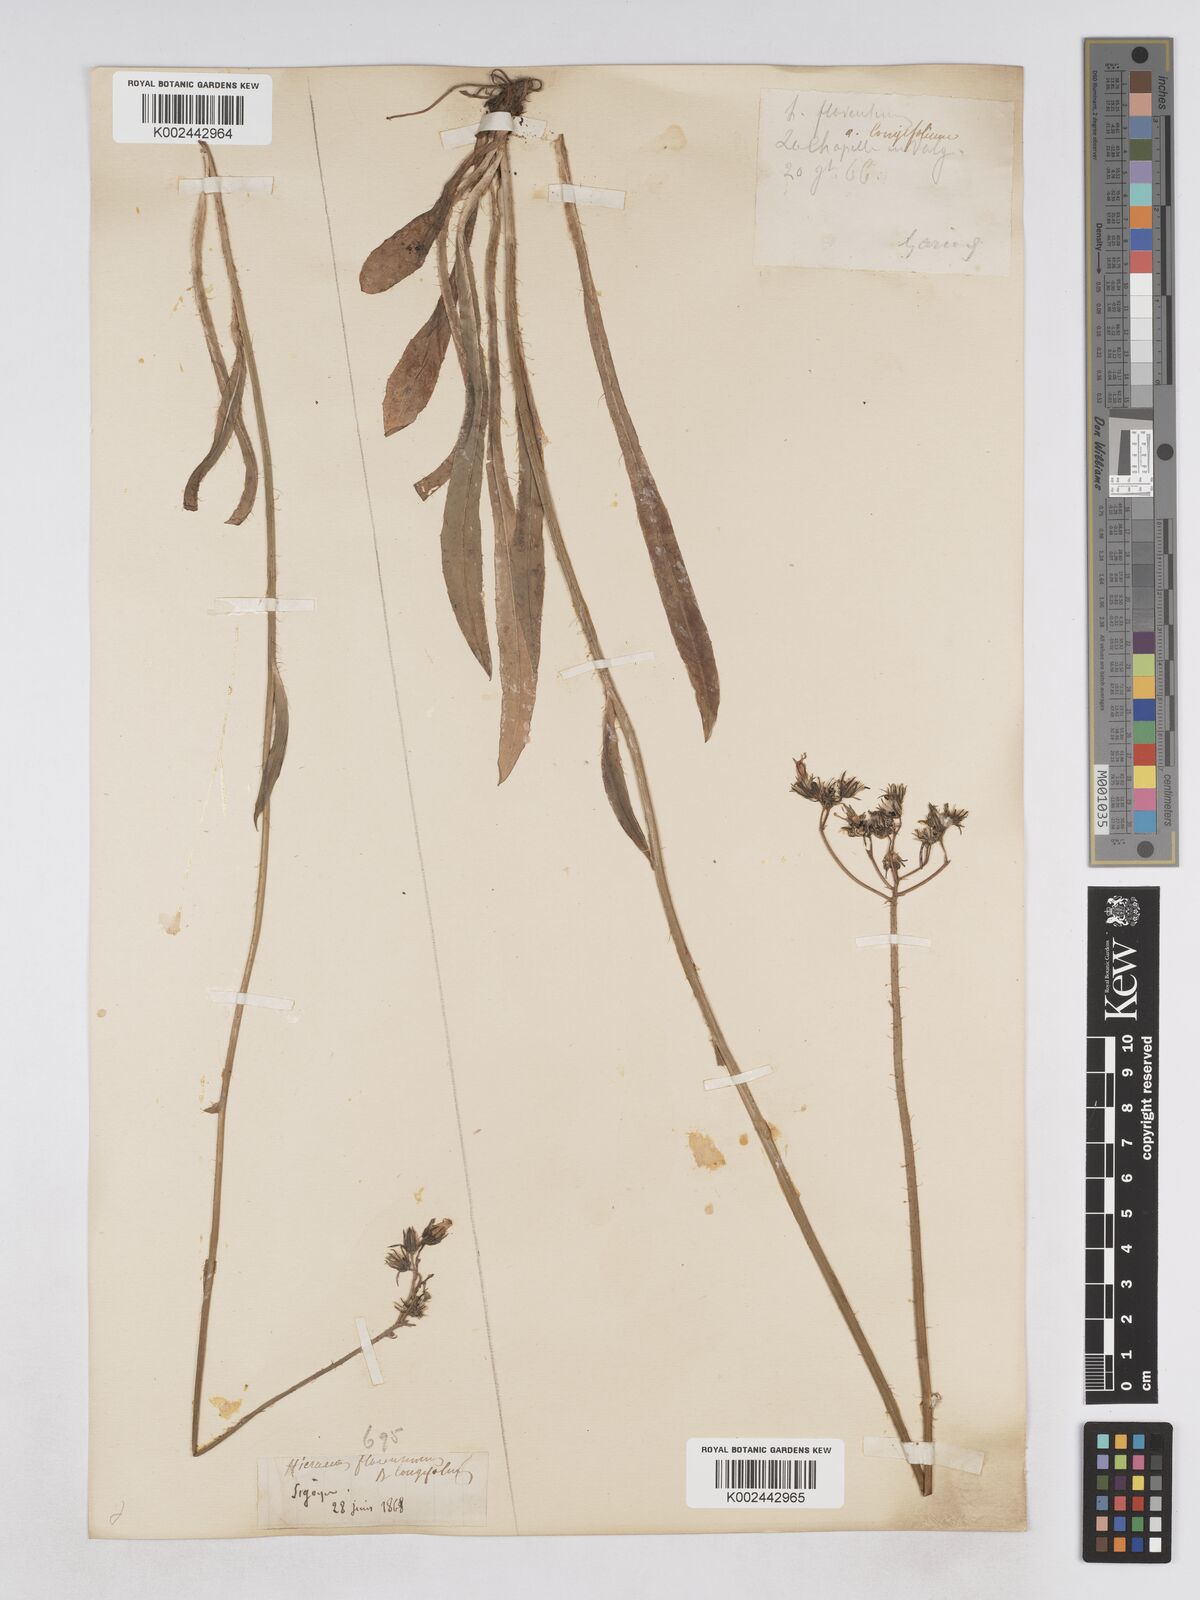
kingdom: Plantae
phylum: Tracheophyta
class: Magnoliopsida
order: Asterales
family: Asteraceae
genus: Pilosella
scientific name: Pilosella piloselloides
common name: Glaucous king-devil
